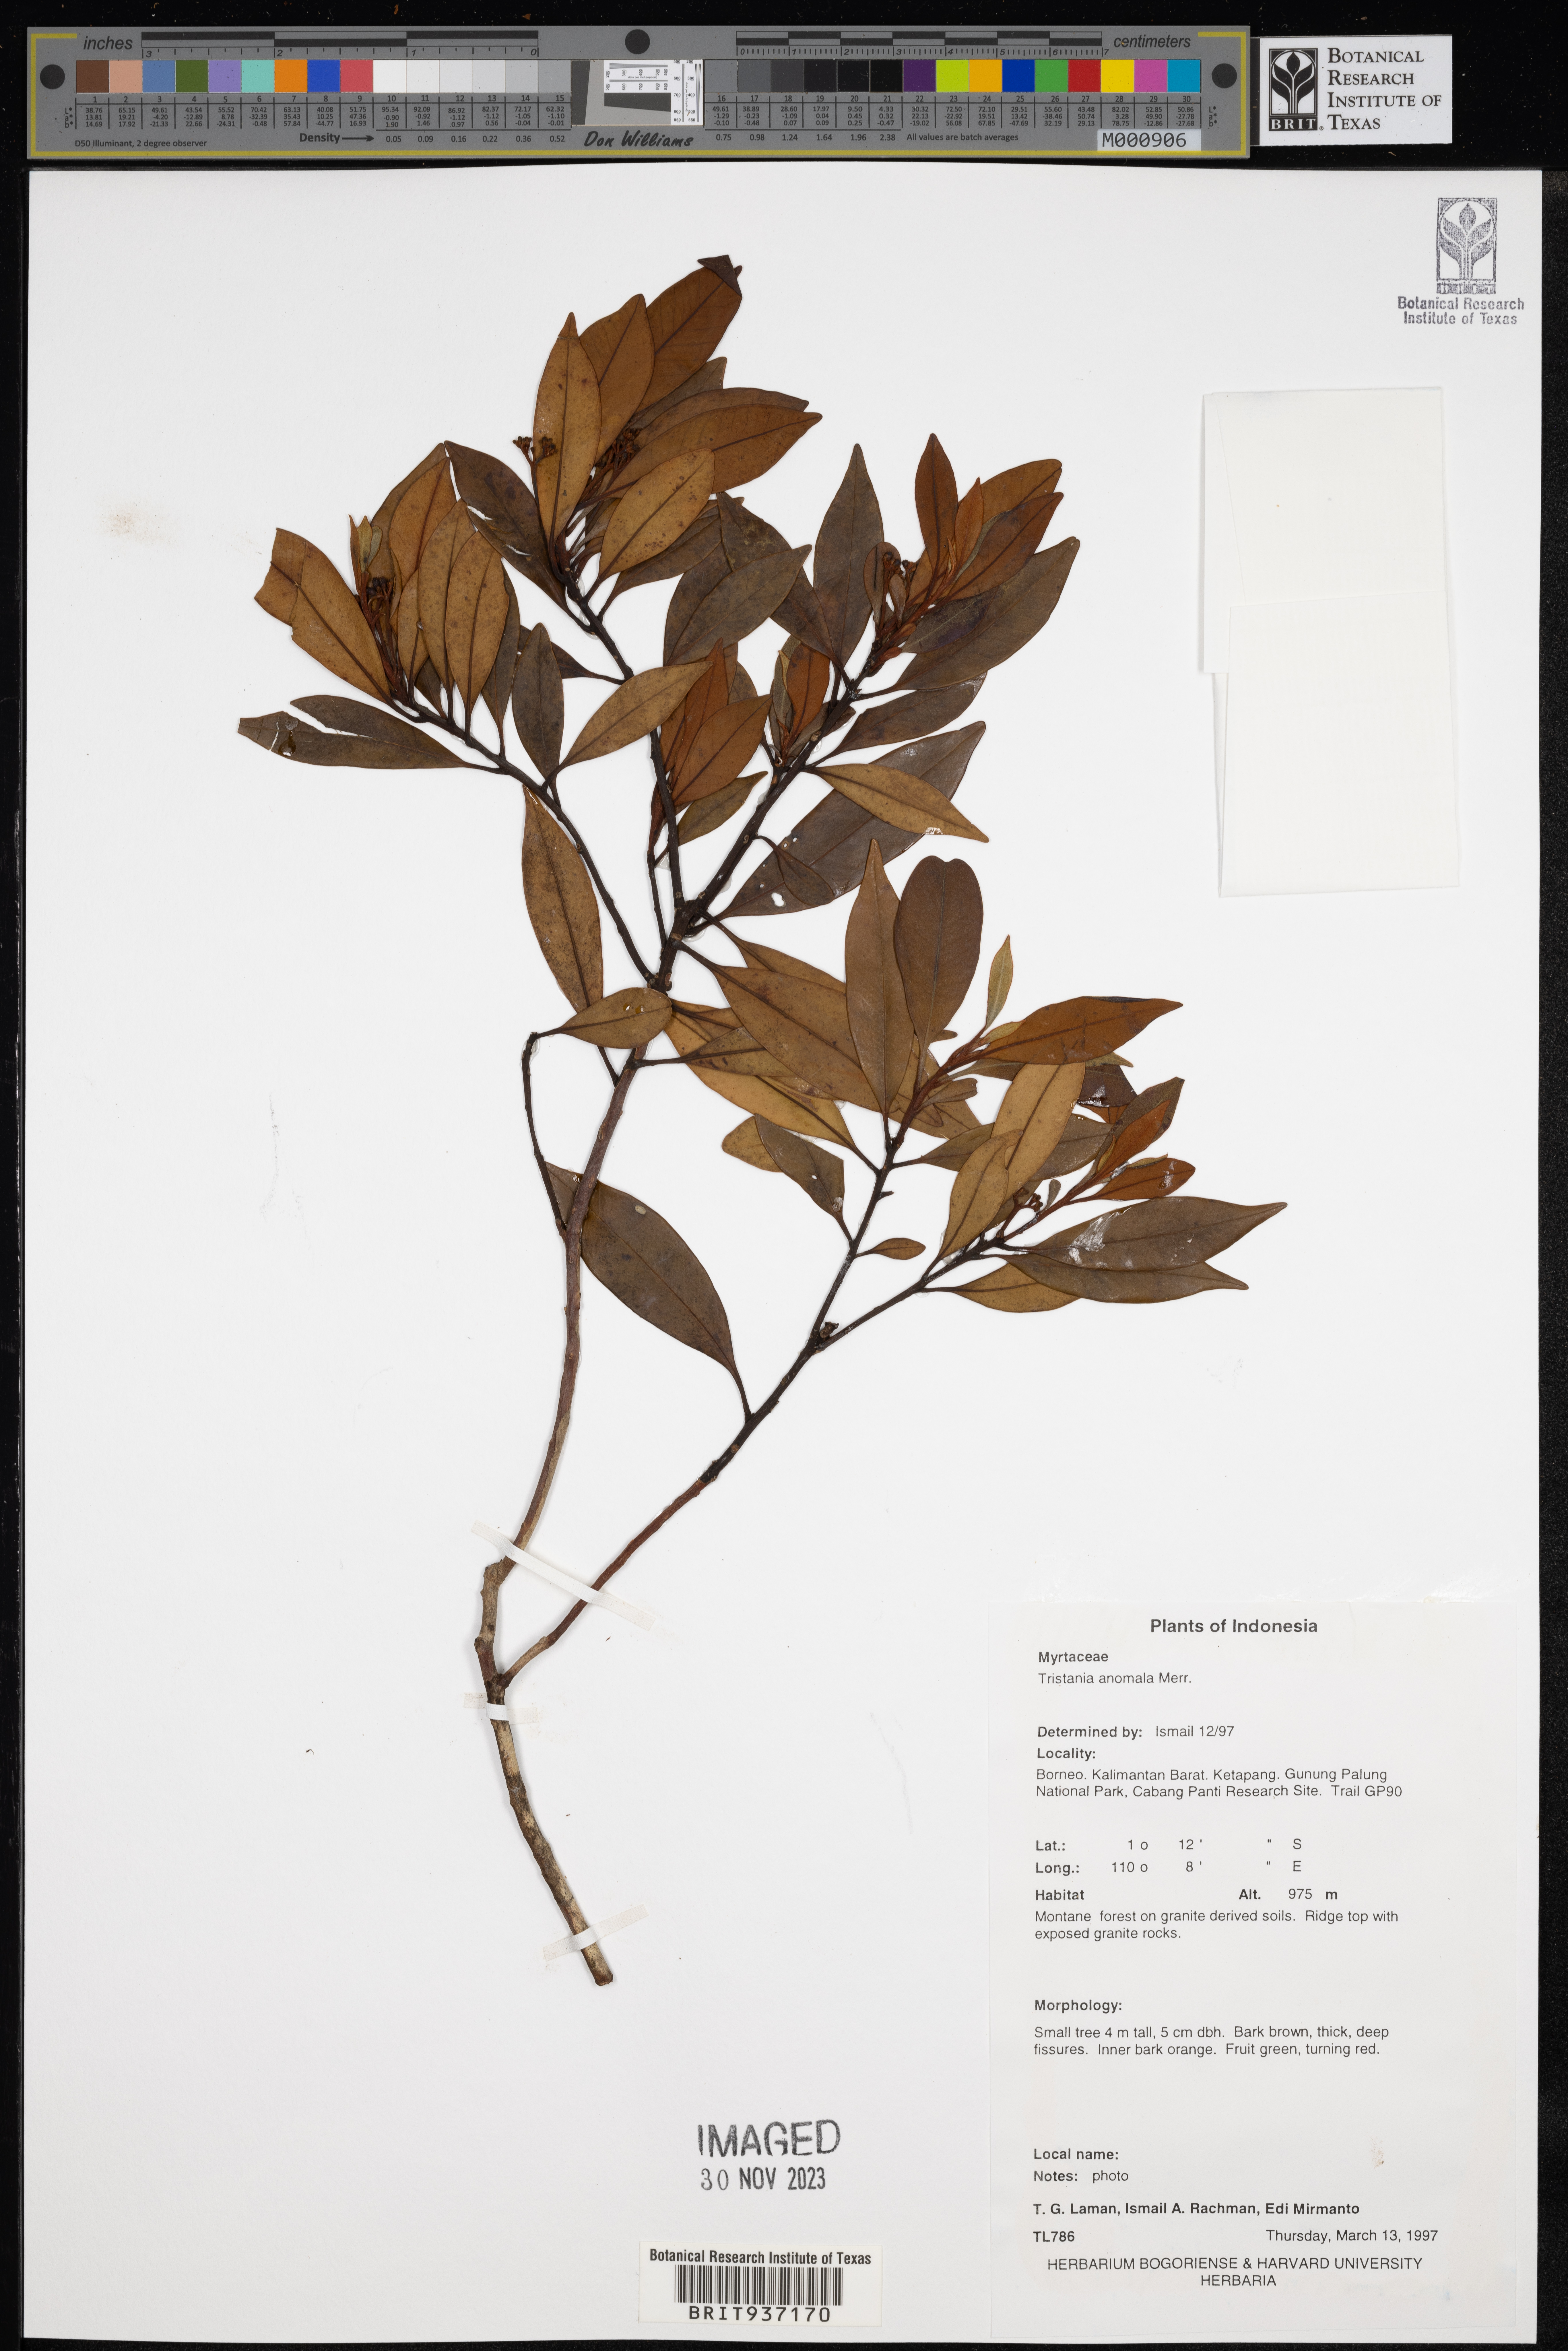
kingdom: Plantae
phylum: Tracheophyta
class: Magnoliopsida
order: Myrtales
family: Myrtaceae
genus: Tristania
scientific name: Tristania
